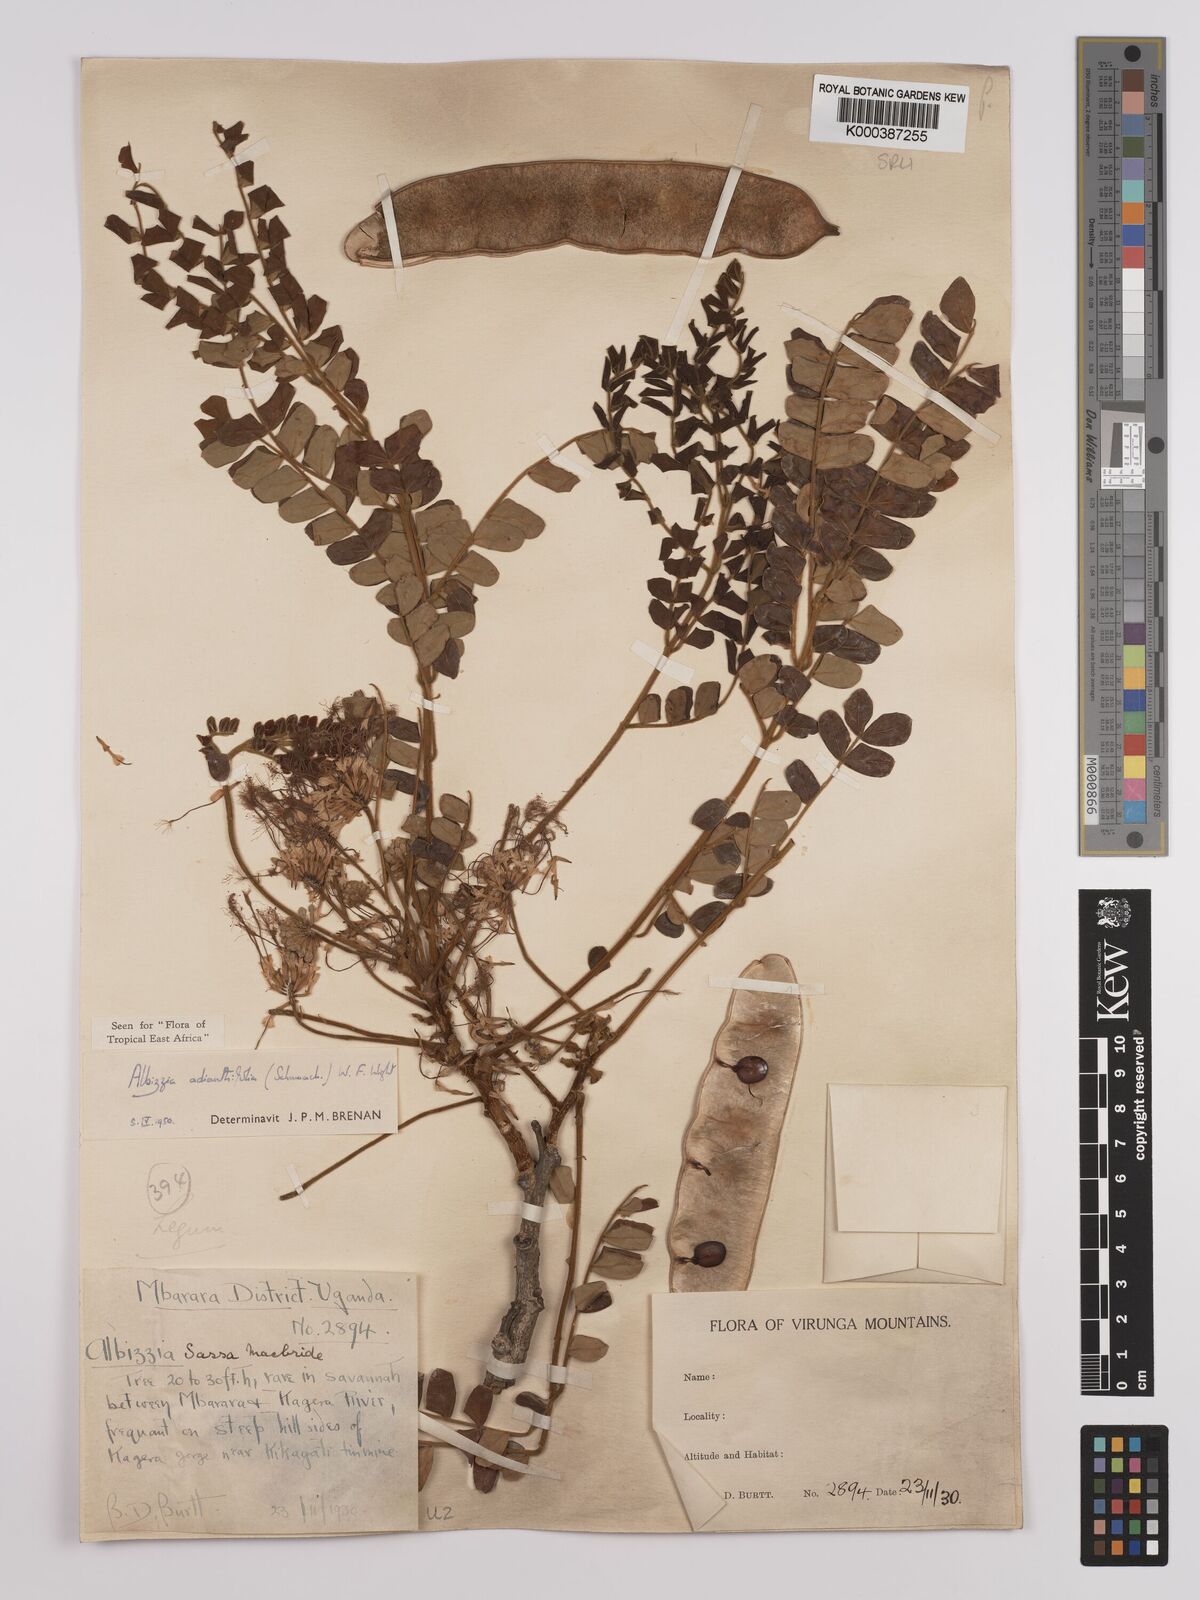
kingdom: Plantae
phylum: Tracheophyta
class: Magnoliopsida
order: Fabales
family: Fabaceae
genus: Albizia
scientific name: Albizia adianthifolia
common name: West african albizia
